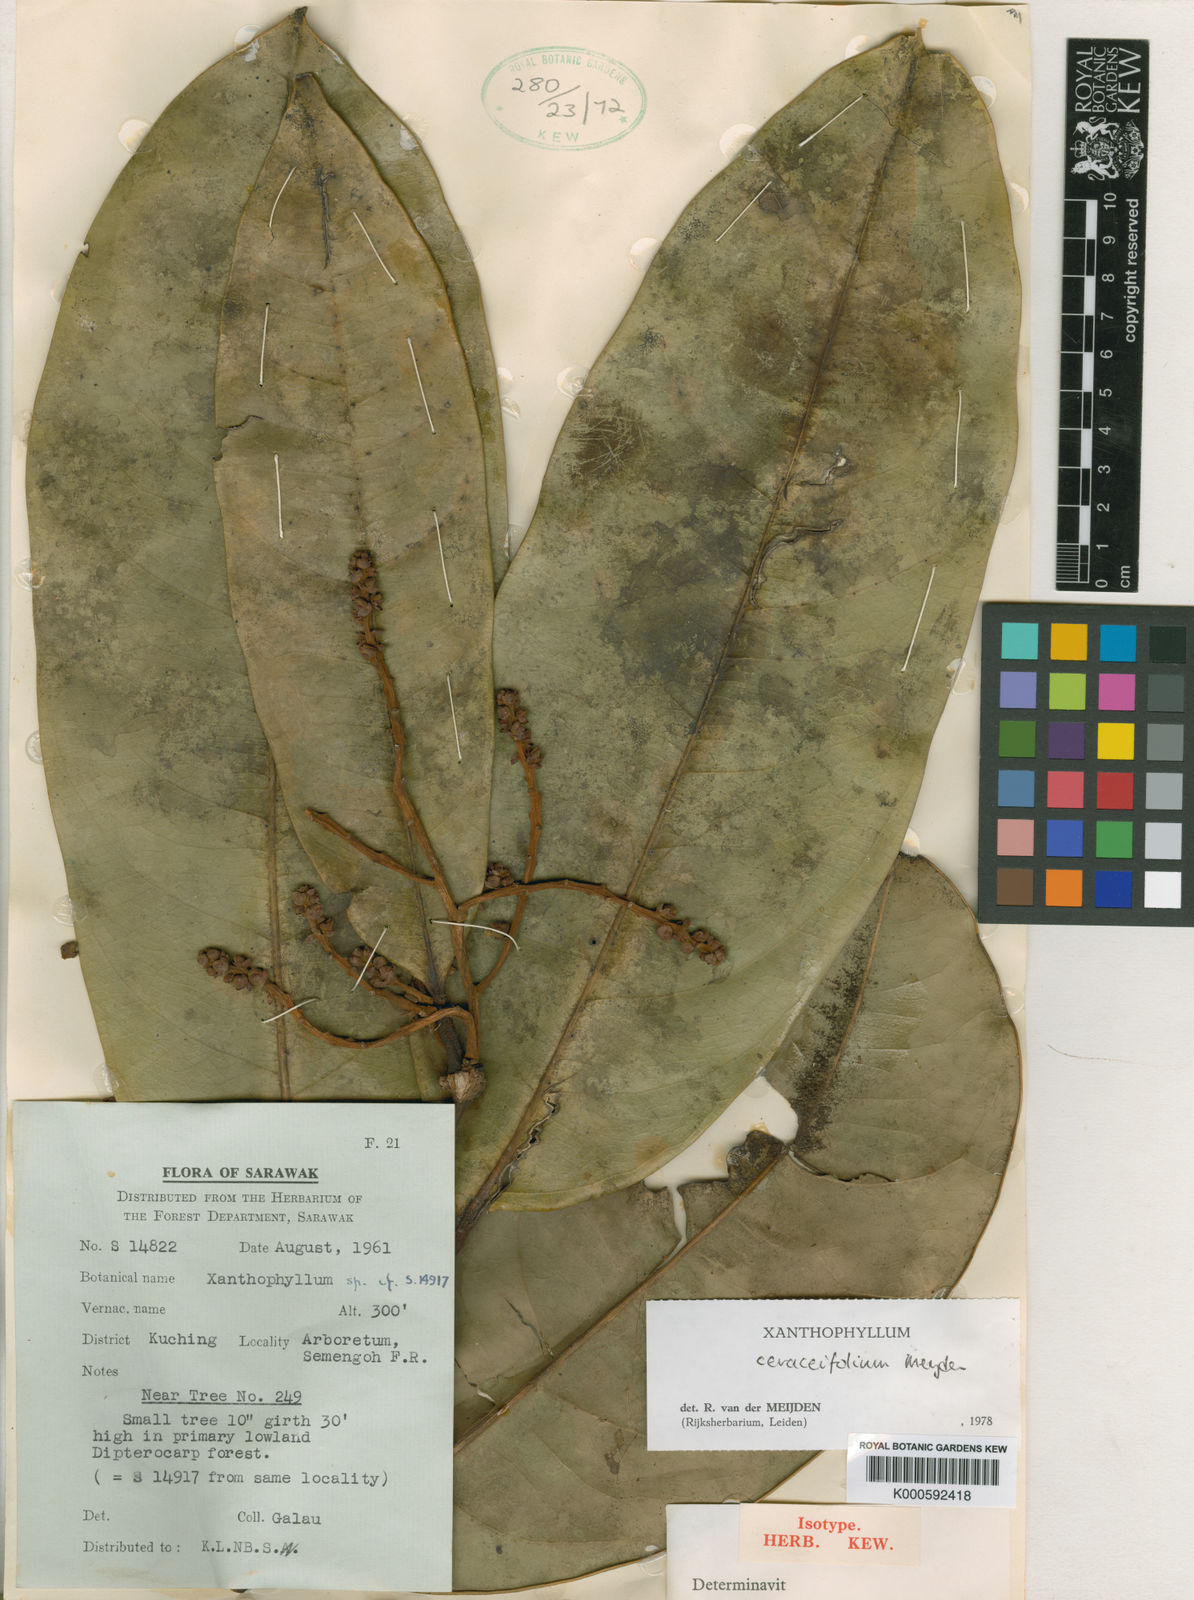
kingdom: Plantae
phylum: Tracheophyta
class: Magnoliopsida
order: Fabales
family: Polygalaceae
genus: Xanthophyllum
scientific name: Xanthophyllum ceraceifolium
